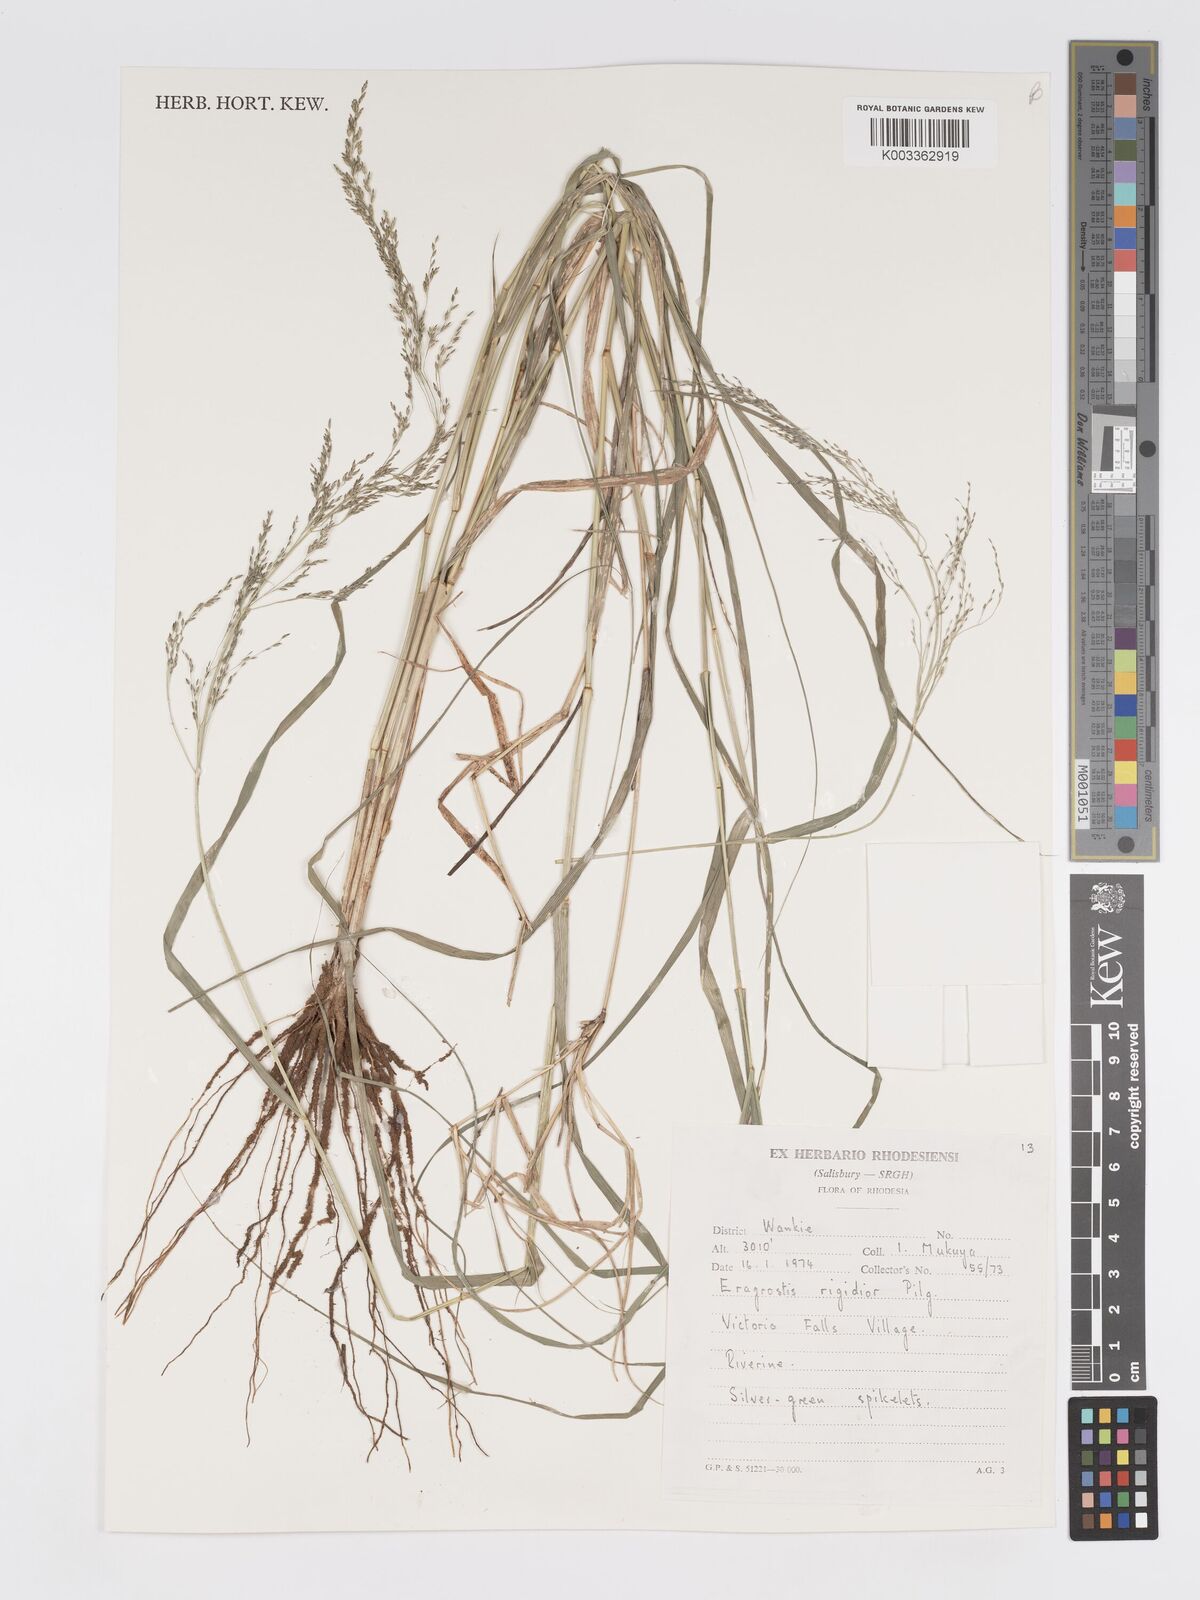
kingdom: Plantae
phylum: Tracheophyta
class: Liliopsida
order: Poales
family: Poaceae
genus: Eragrostis
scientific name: Eragrostis cylindriflora
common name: Cylinderflower lovegrass
